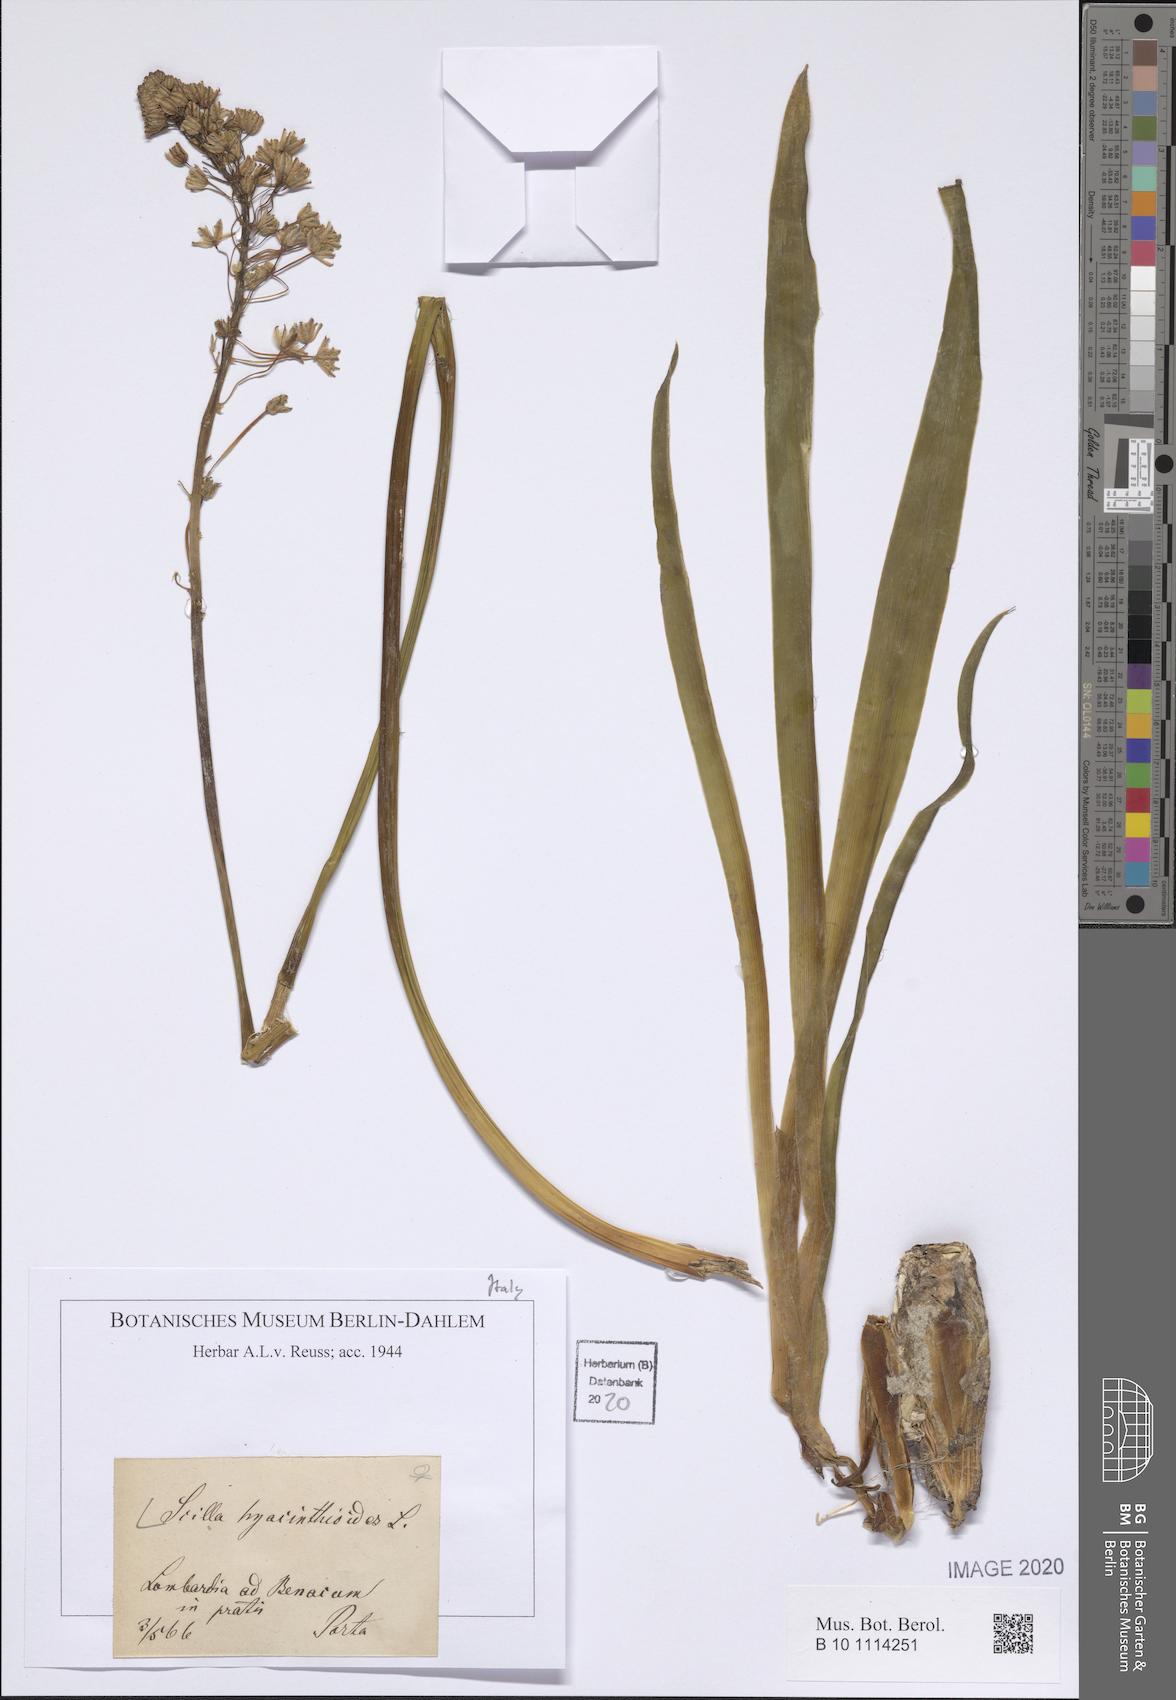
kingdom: Plantae
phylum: Tracheophyta
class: Liliopsida
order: Asparagales
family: Asparagaceae
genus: Scilla
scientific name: Scilla hyacinthoides
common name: Scilla
